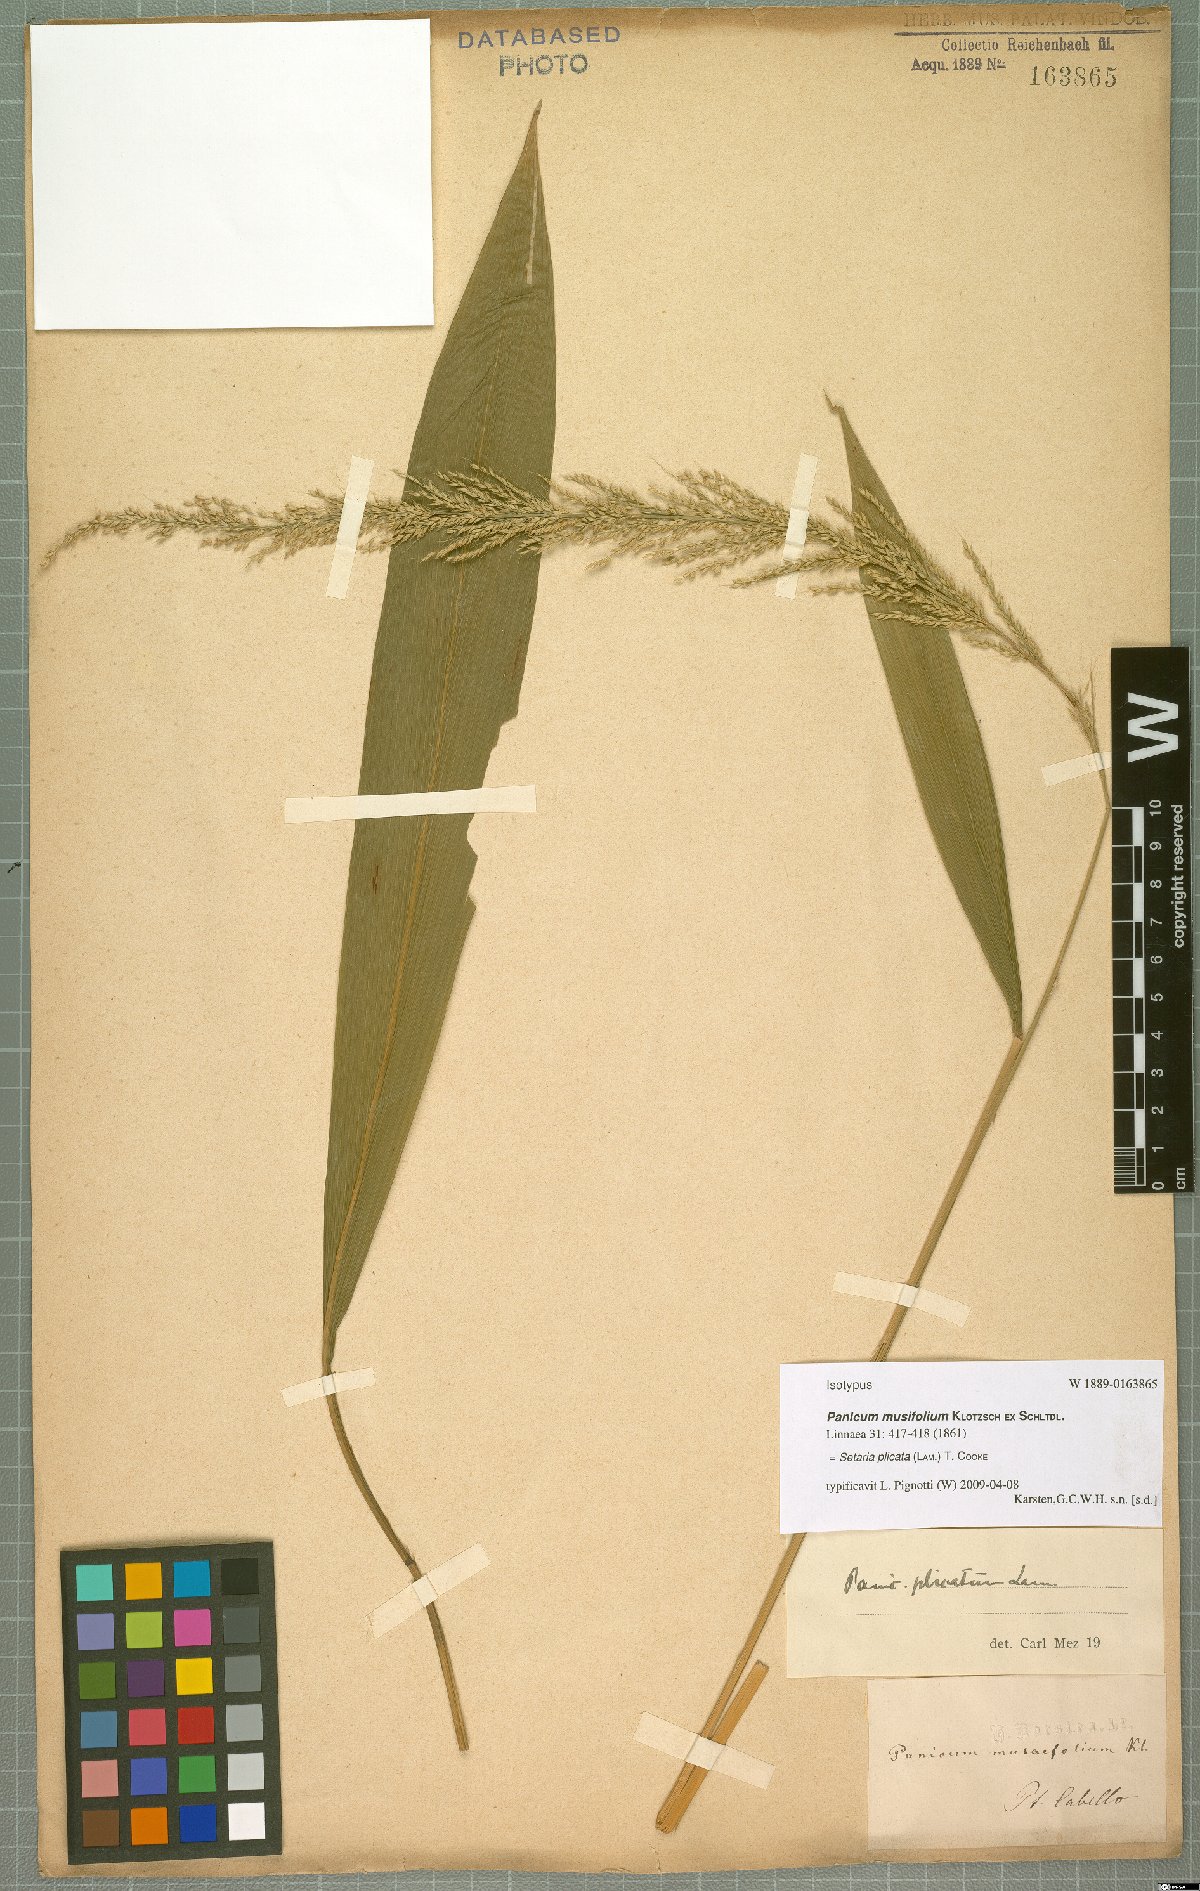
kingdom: Plantae
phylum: Tracheophyta
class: Liliopsida
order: Poales
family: Poaceae
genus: Setaria
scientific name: Setaria plicata
